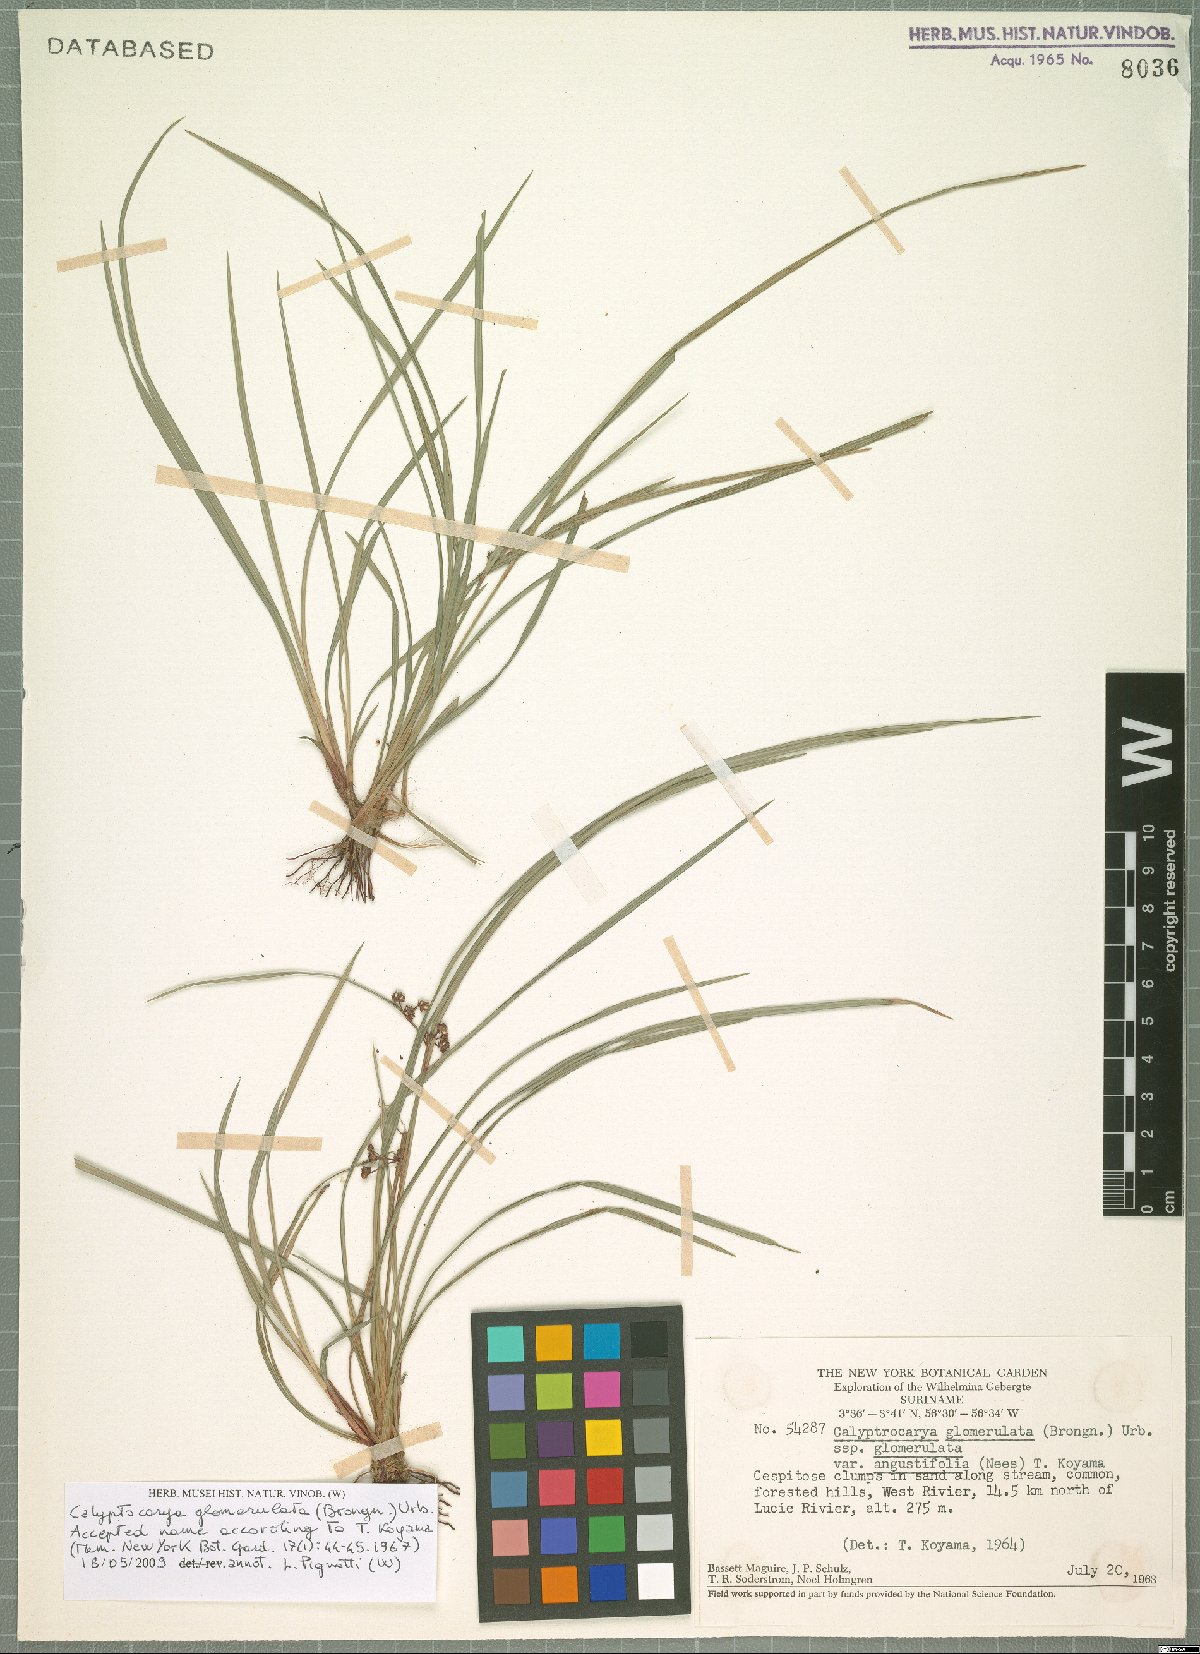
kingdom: Plantae
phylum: Tracheophyta
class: Liliopsida
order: Poales
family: Cyperaceae
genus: Calyptrocarya
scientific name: Calyptrocarya glomerulata
